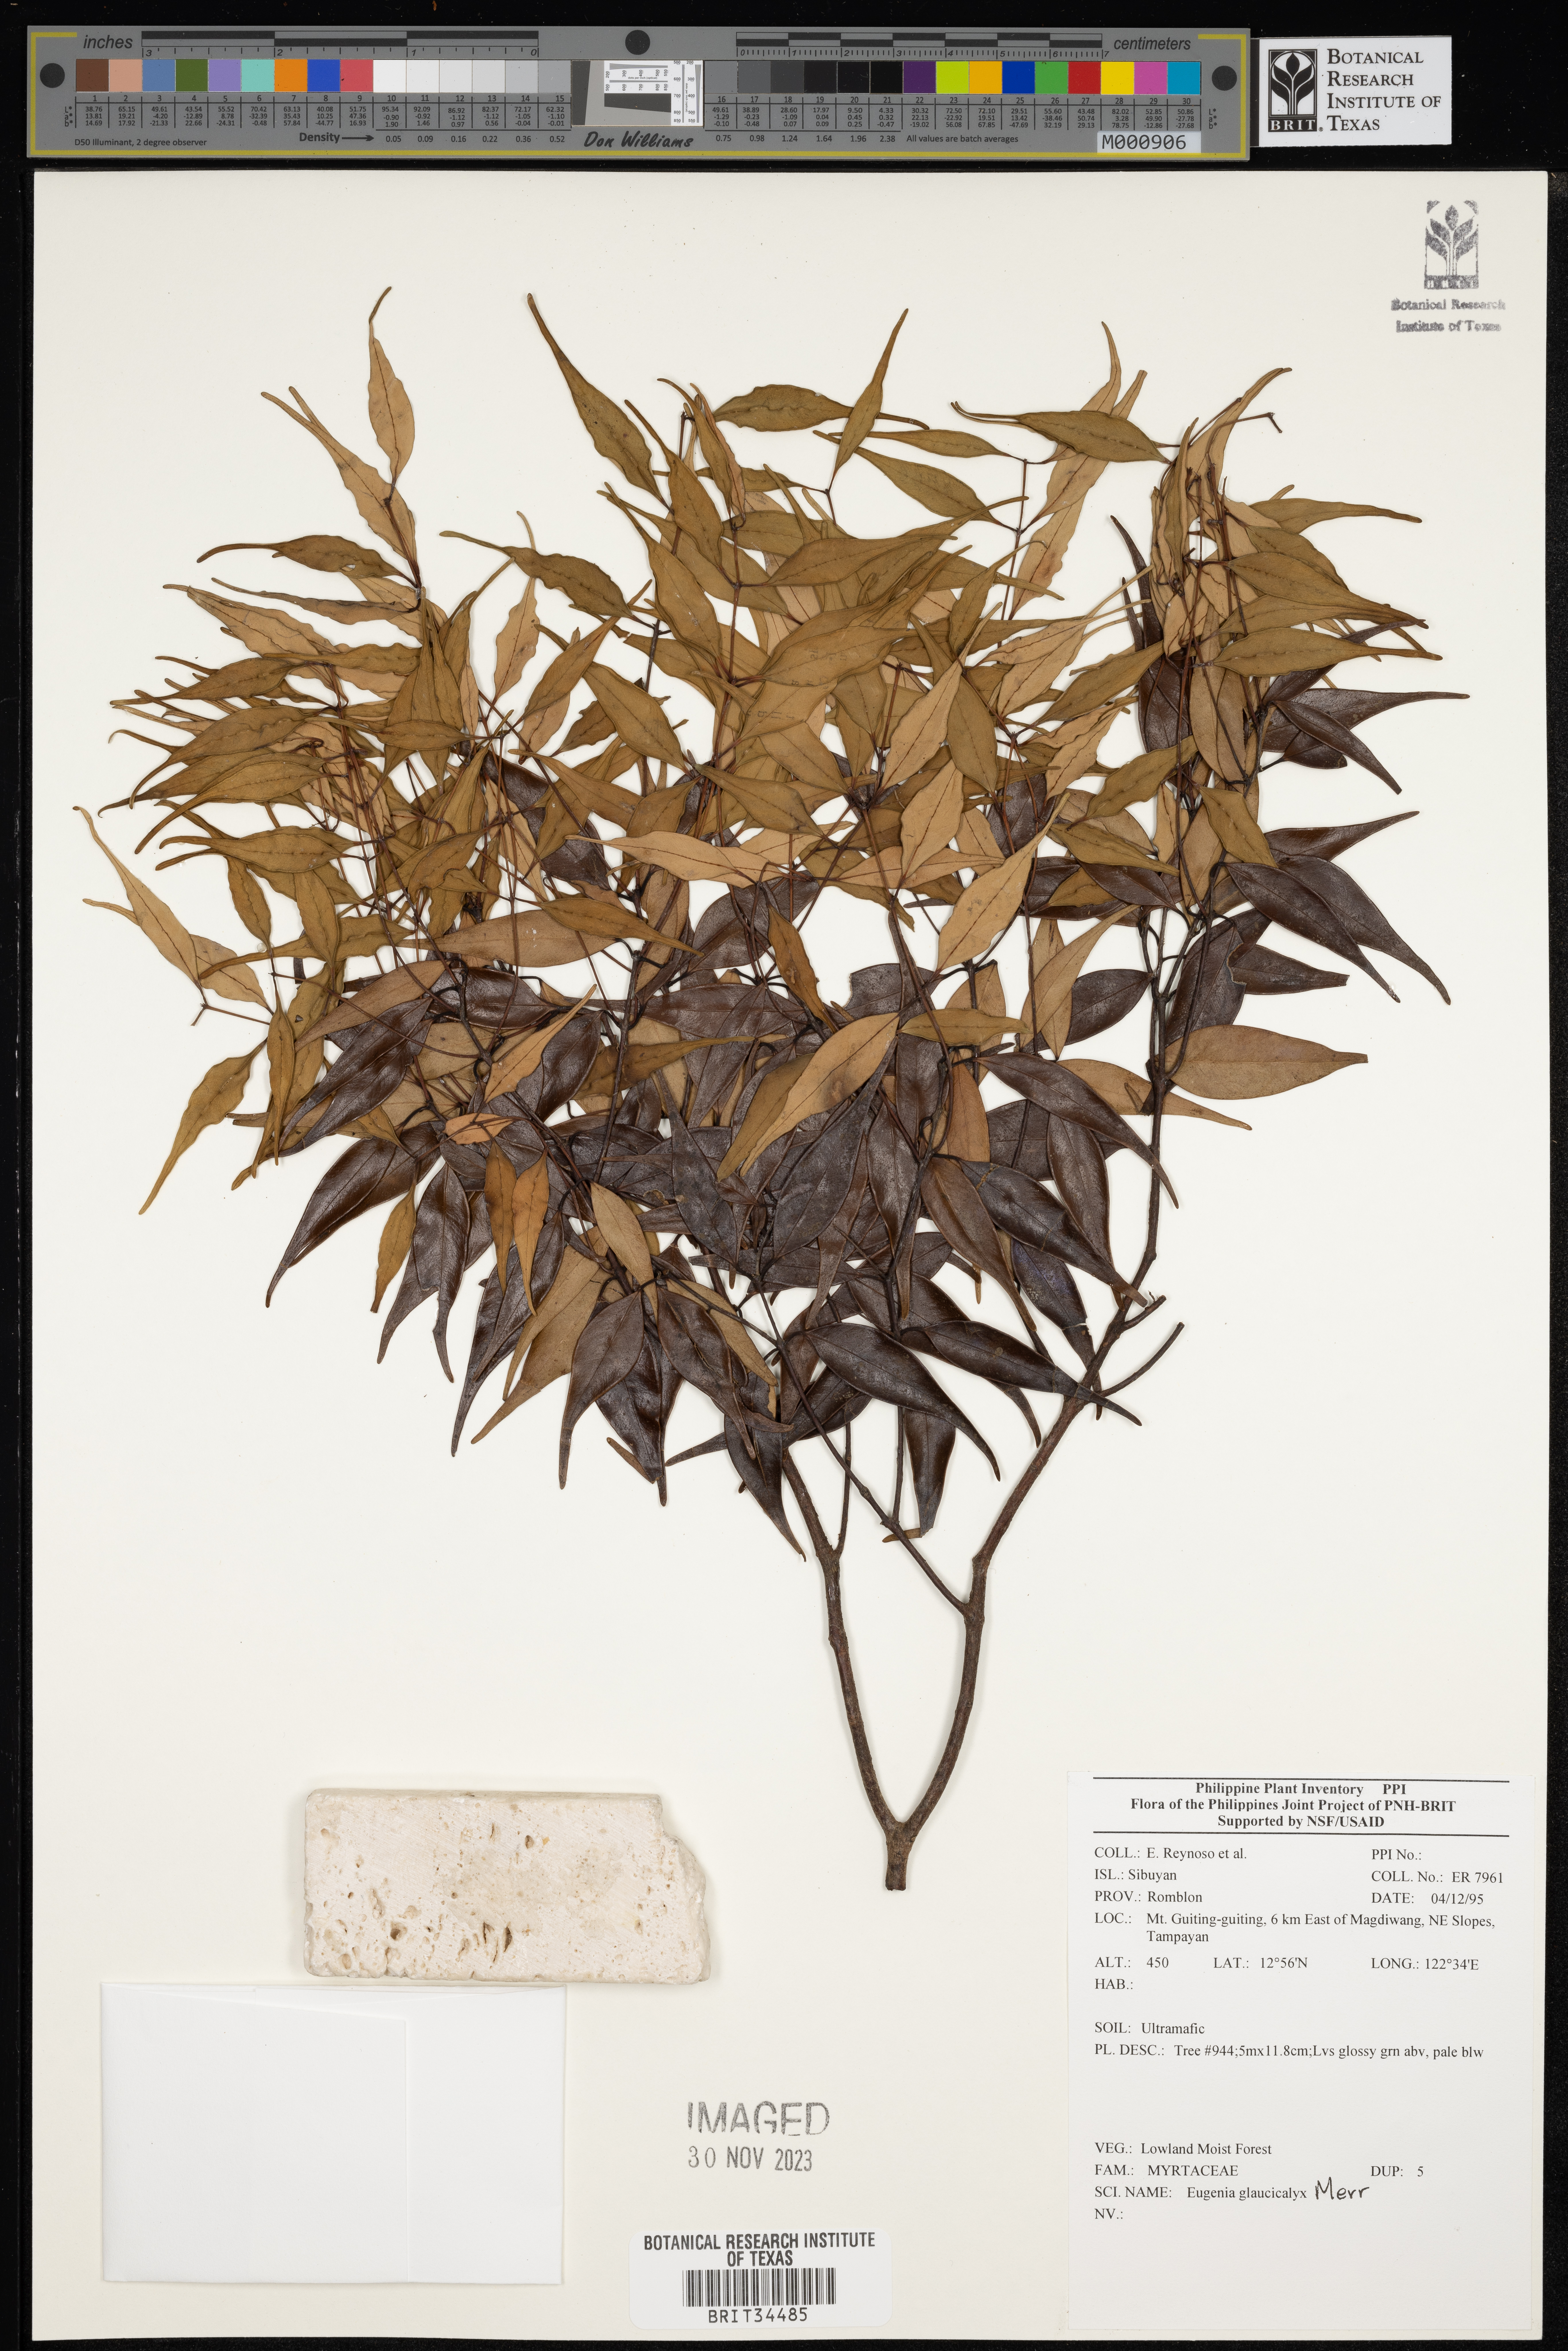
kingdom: Plantae
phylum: Tracheophyta
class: Magnoliopsida
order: Myrtales
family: Myrtaceae
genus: Eugenia
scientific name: Eugenia
